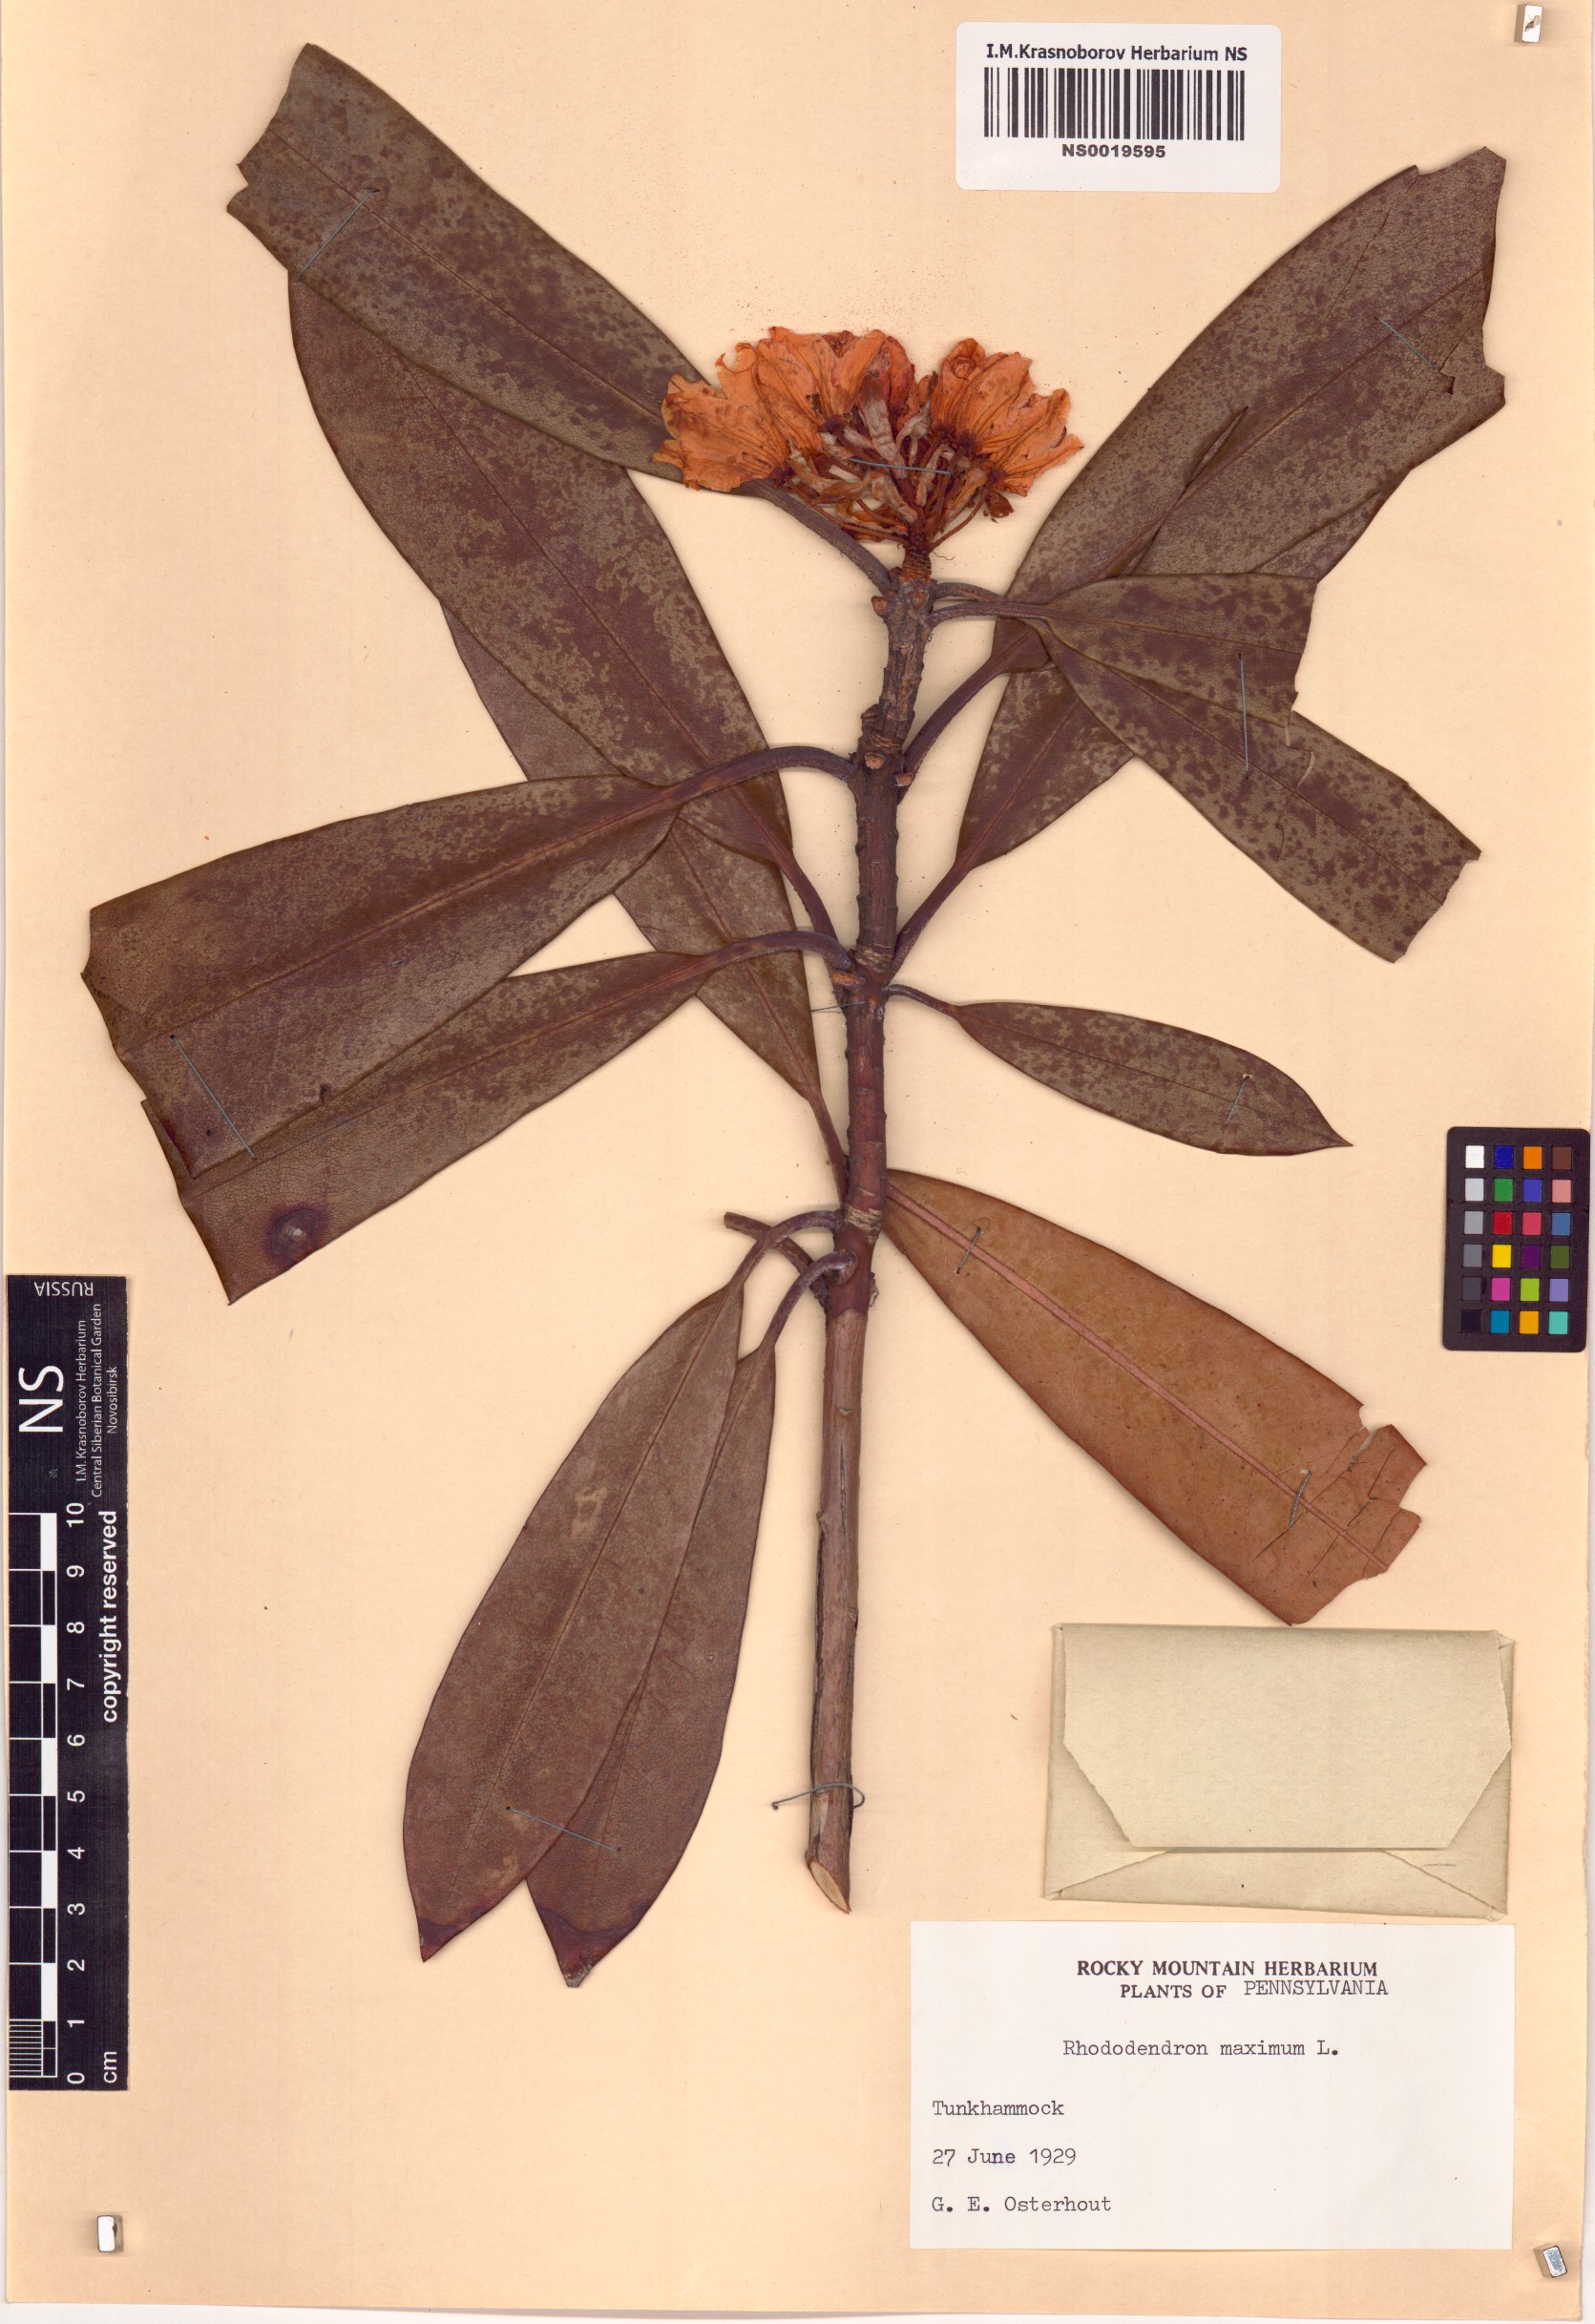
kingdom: Plantae
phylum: Tracheophyta
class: Magnoliopsida
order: Ericales
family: Ericaceae
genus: Rhododendron
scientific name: Rhododendron maximum
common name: Great rhododendron
